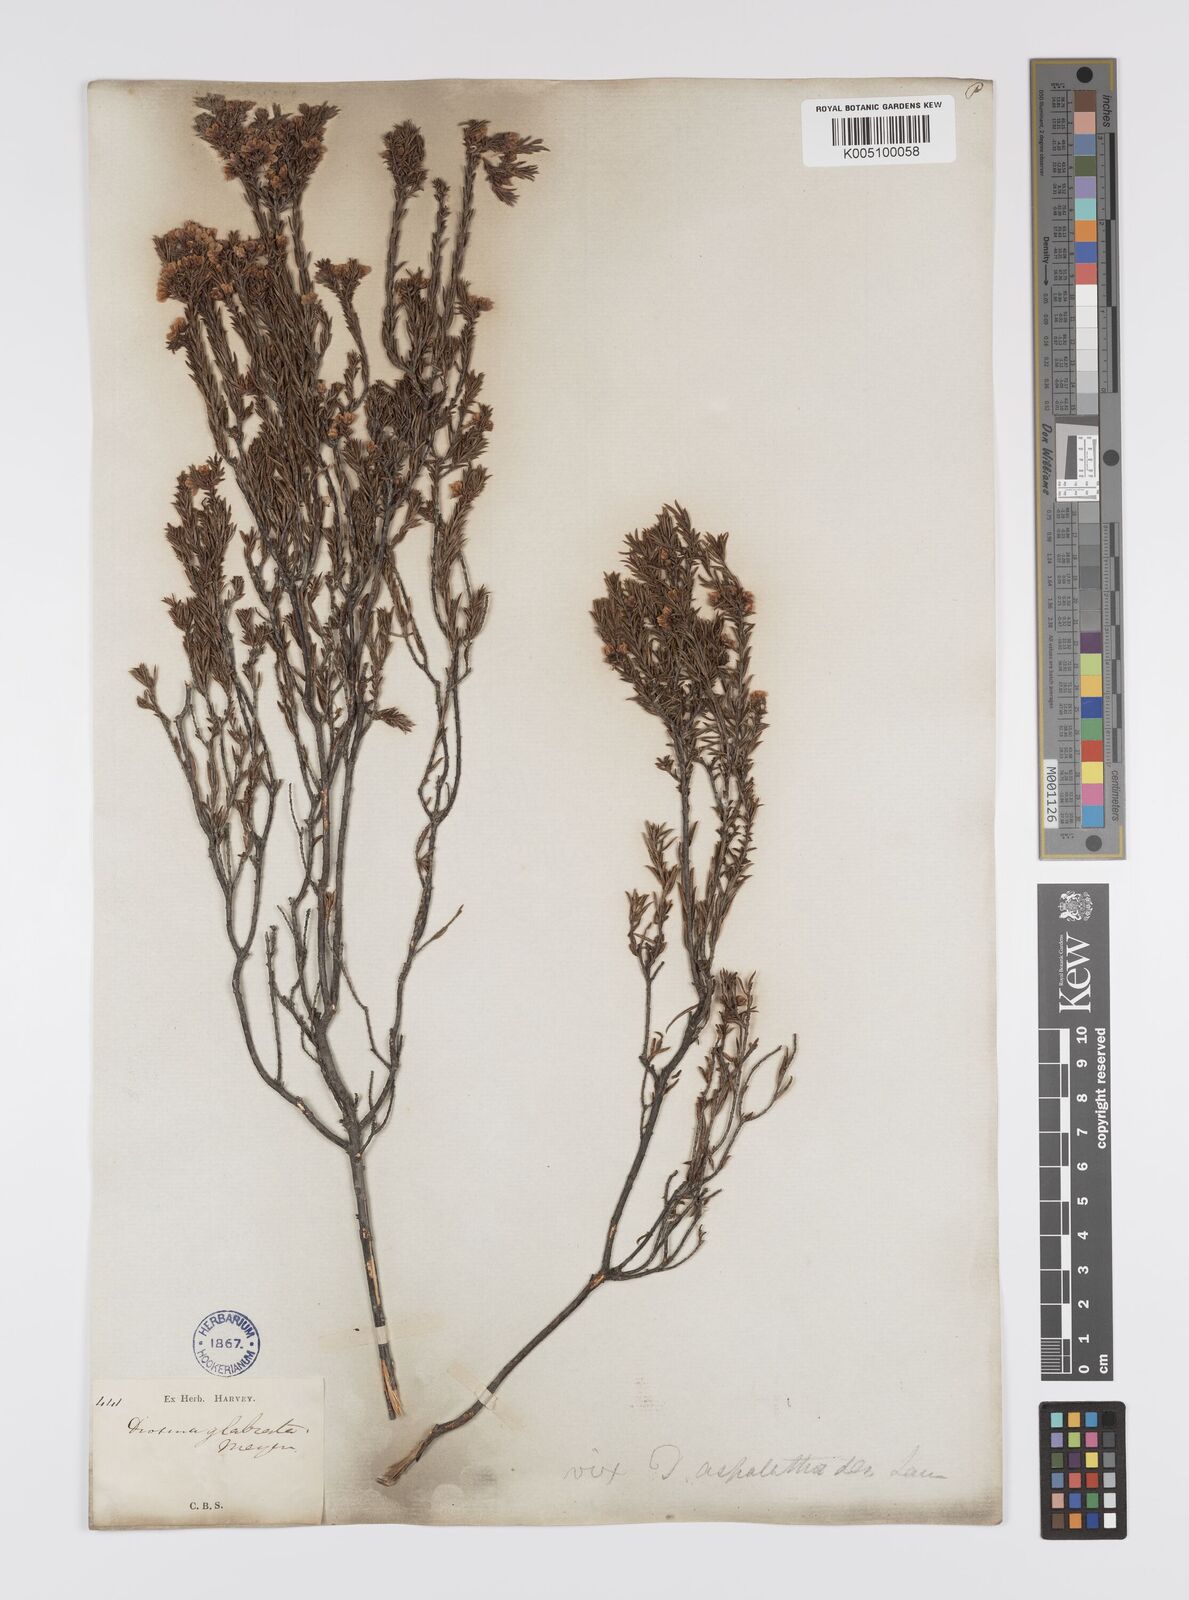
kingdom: Plantae
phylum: Tracheophyta
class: Magnoliopsida
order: Sapindales
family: Rutaceae
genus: Diosma
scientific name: Diosma aspalathoides
